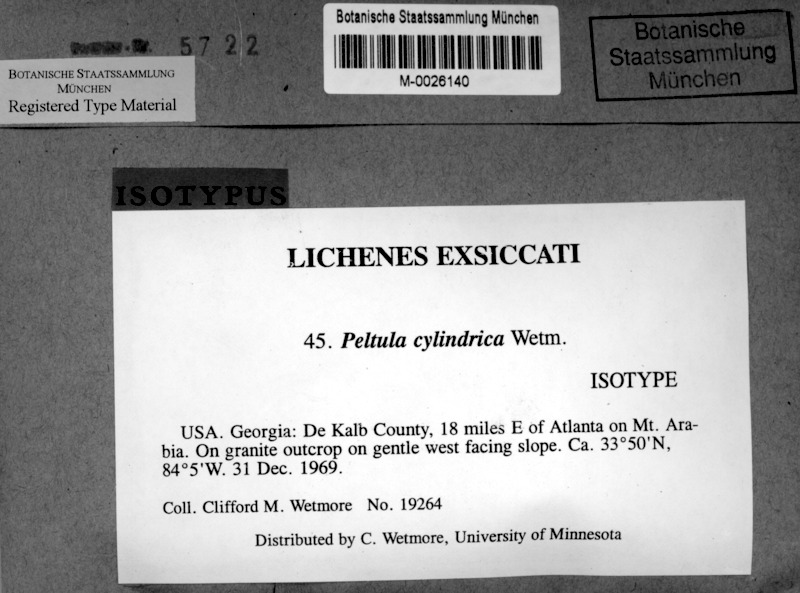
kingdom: Fungi
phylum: Ascomycota
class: Lichinomycetes
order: Lichinales
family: Peltulaceae
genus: Peltula
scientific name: Peltula cylindrica
